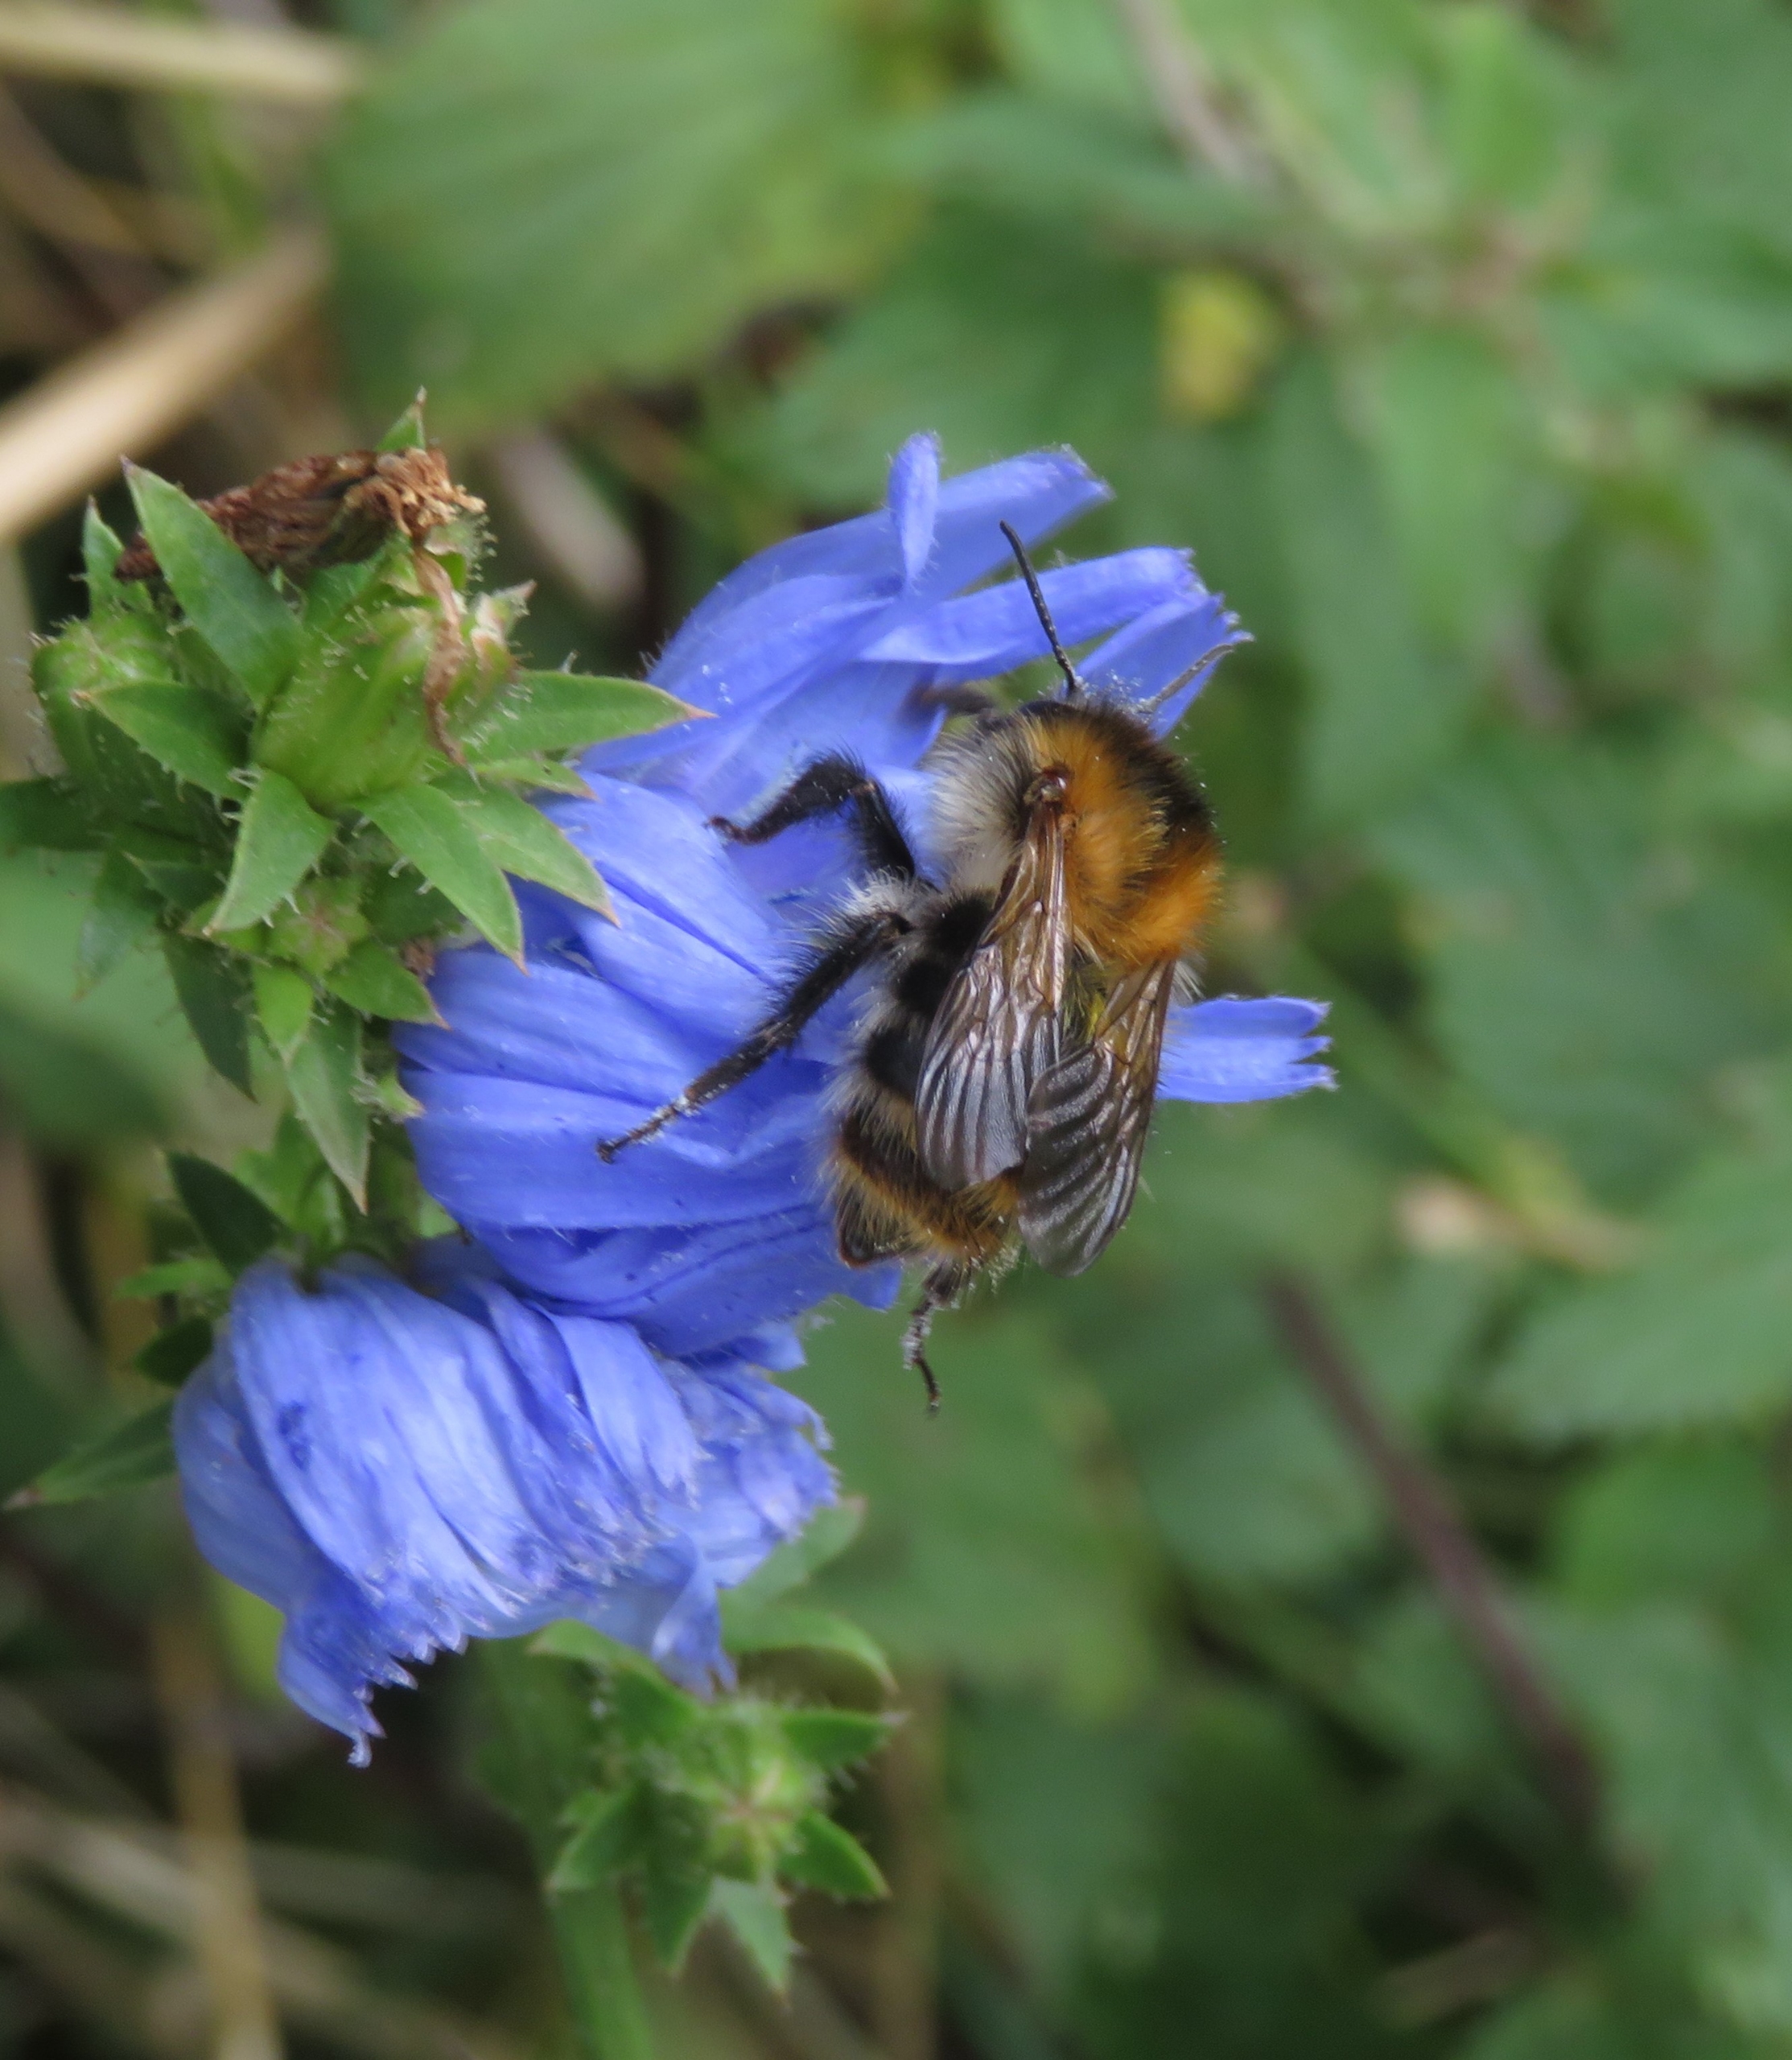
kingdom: Animalia
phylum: Arthropoda
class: Insecta
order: Hymenoptera
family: Apidae
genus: Bombus
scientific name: Bombus pascuorum
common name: Agerhumle
